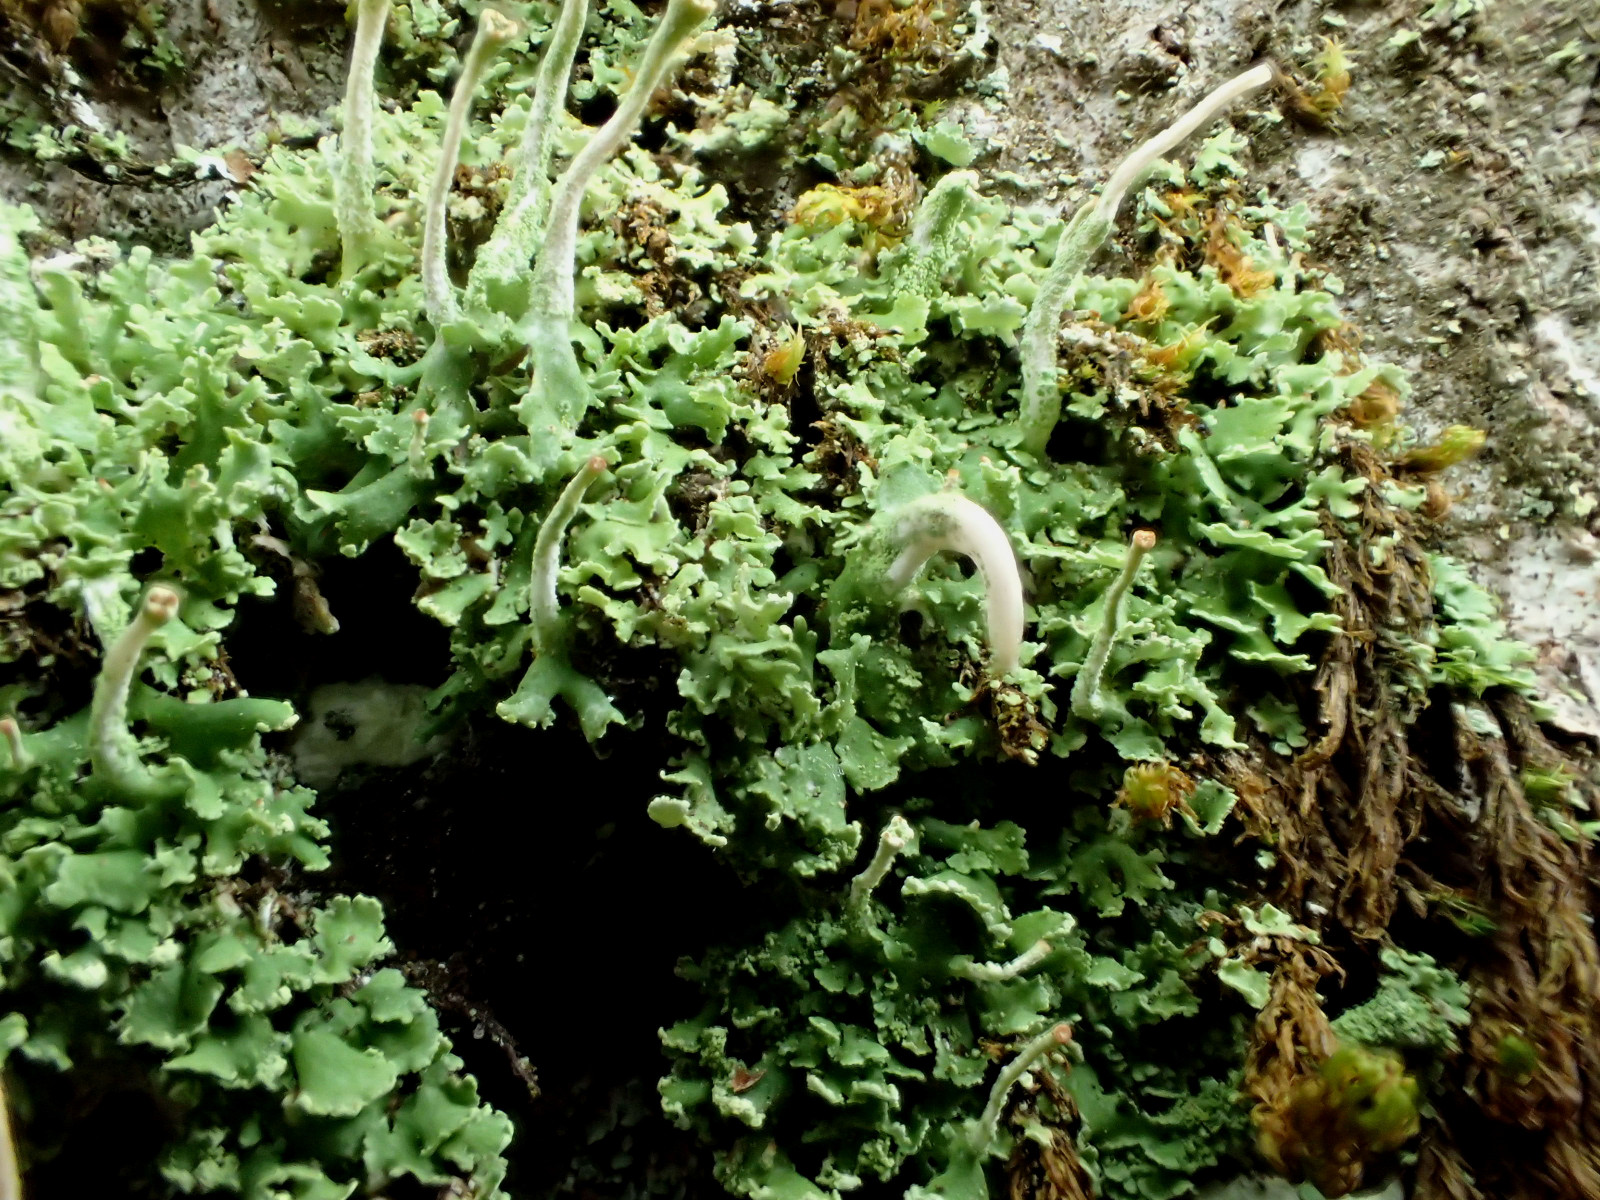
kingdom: Fungi
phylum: Ascomycota
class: Lecanoromycetes
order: Lecanorales
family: Cladoniaceae
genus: Cladonia
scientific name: Cladonia fimbriata
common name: bleggrøn bægerlav
